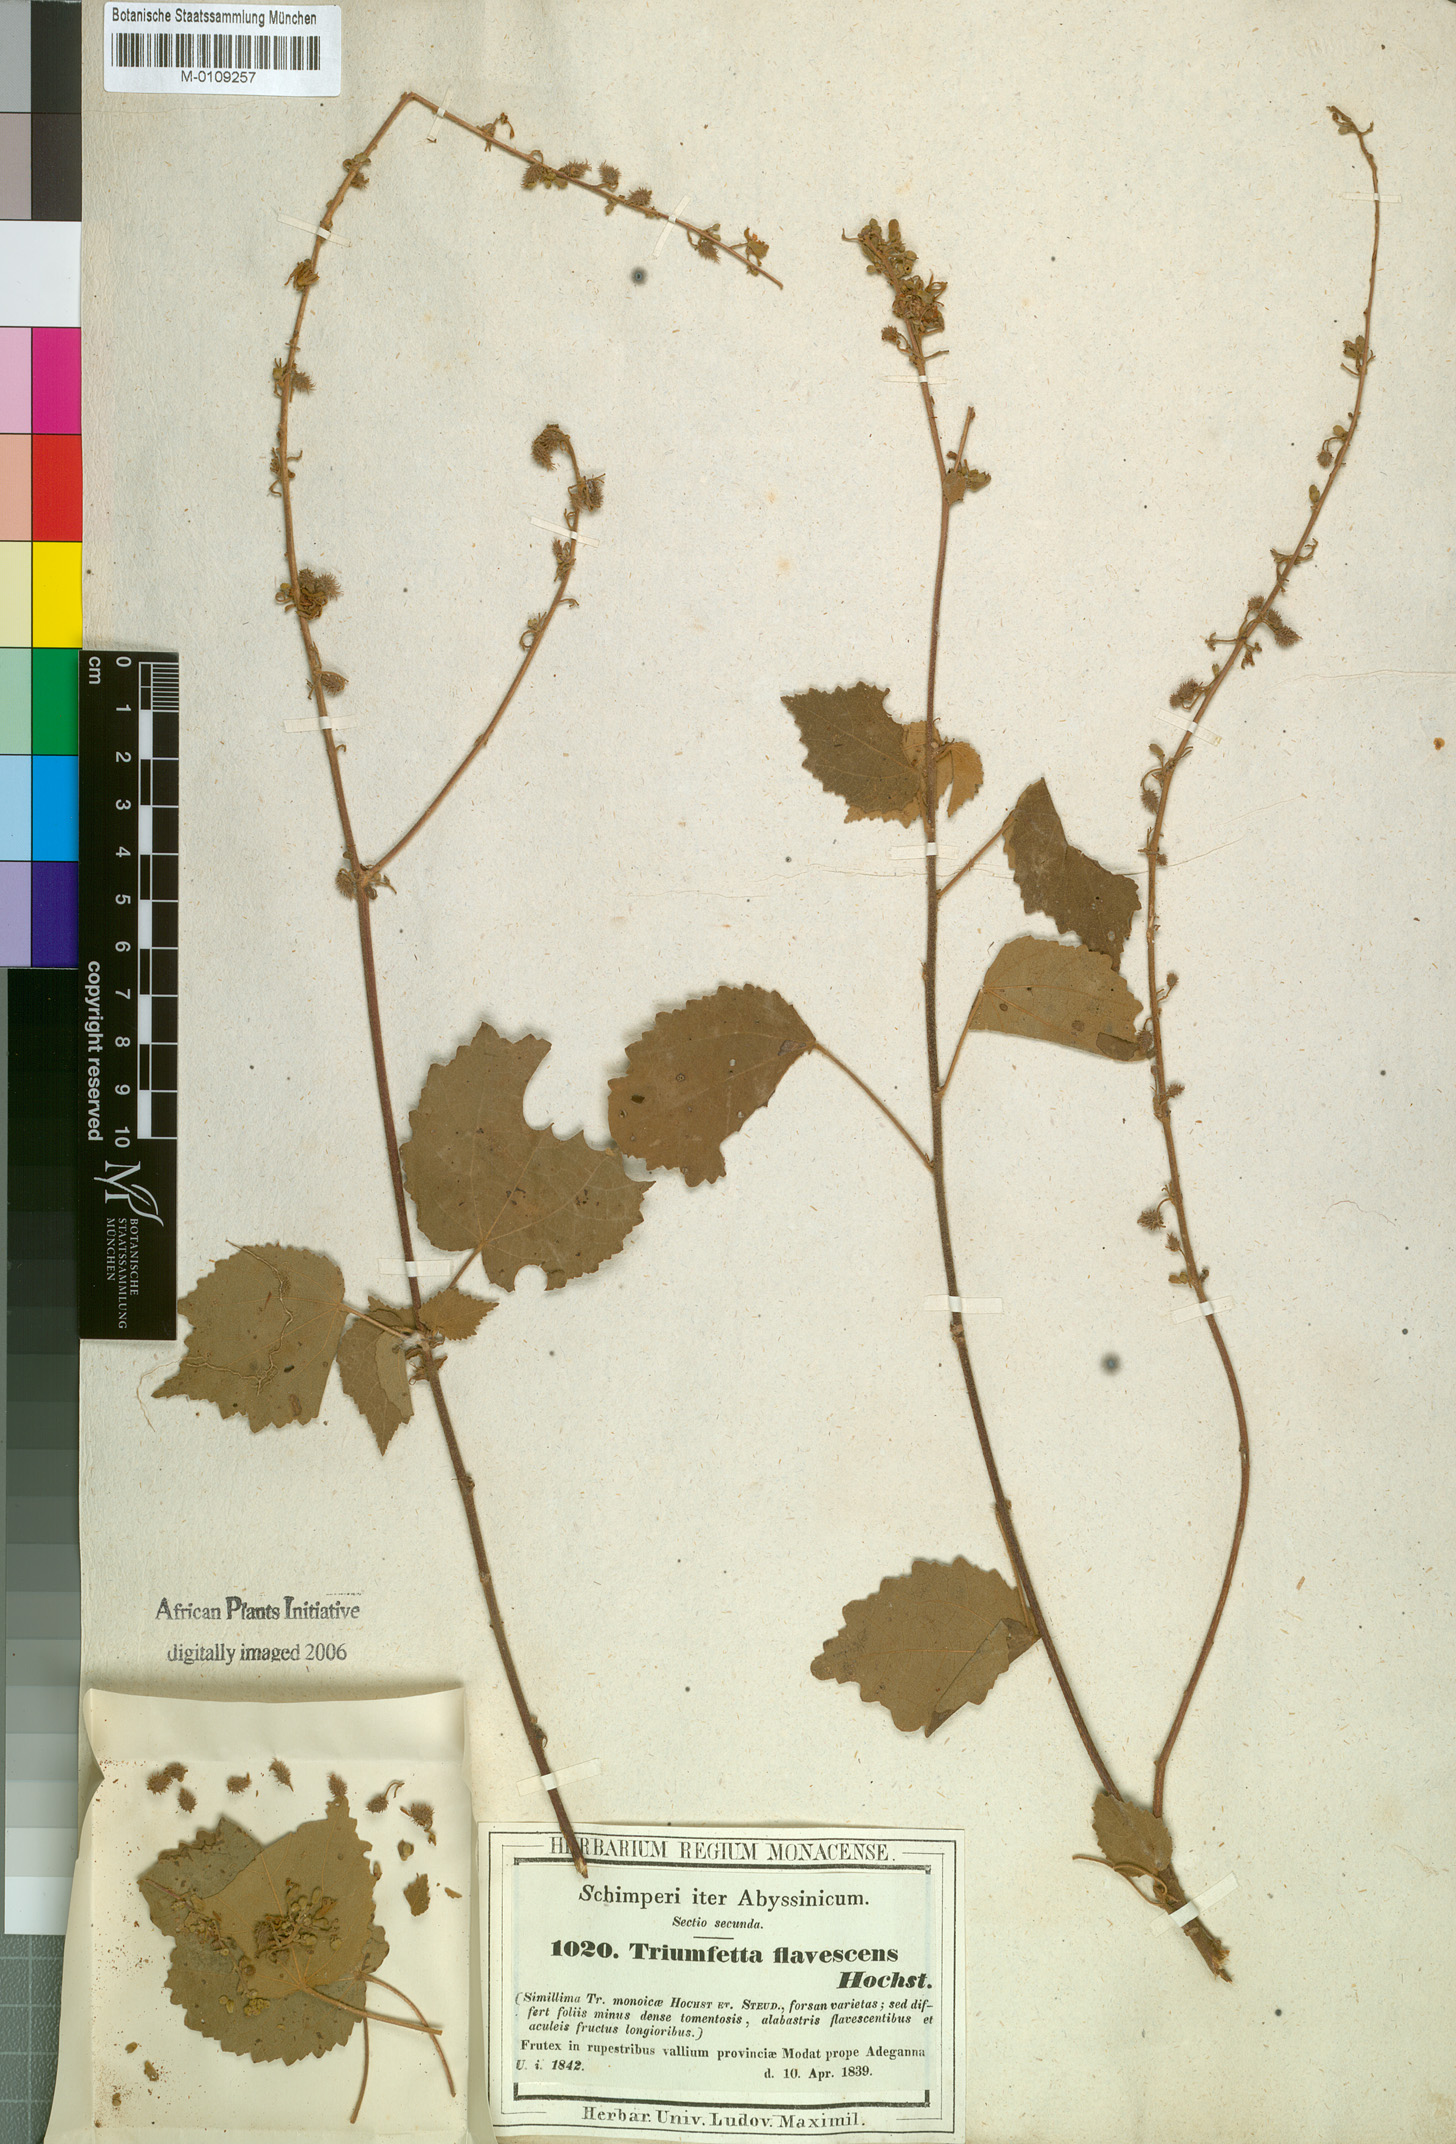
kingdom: Plantae
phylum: Tracheophyta
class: Magnoliopsida
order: Malvales
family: Malvaceae
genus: Triumfetta
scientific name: Triumfetta flavescens
